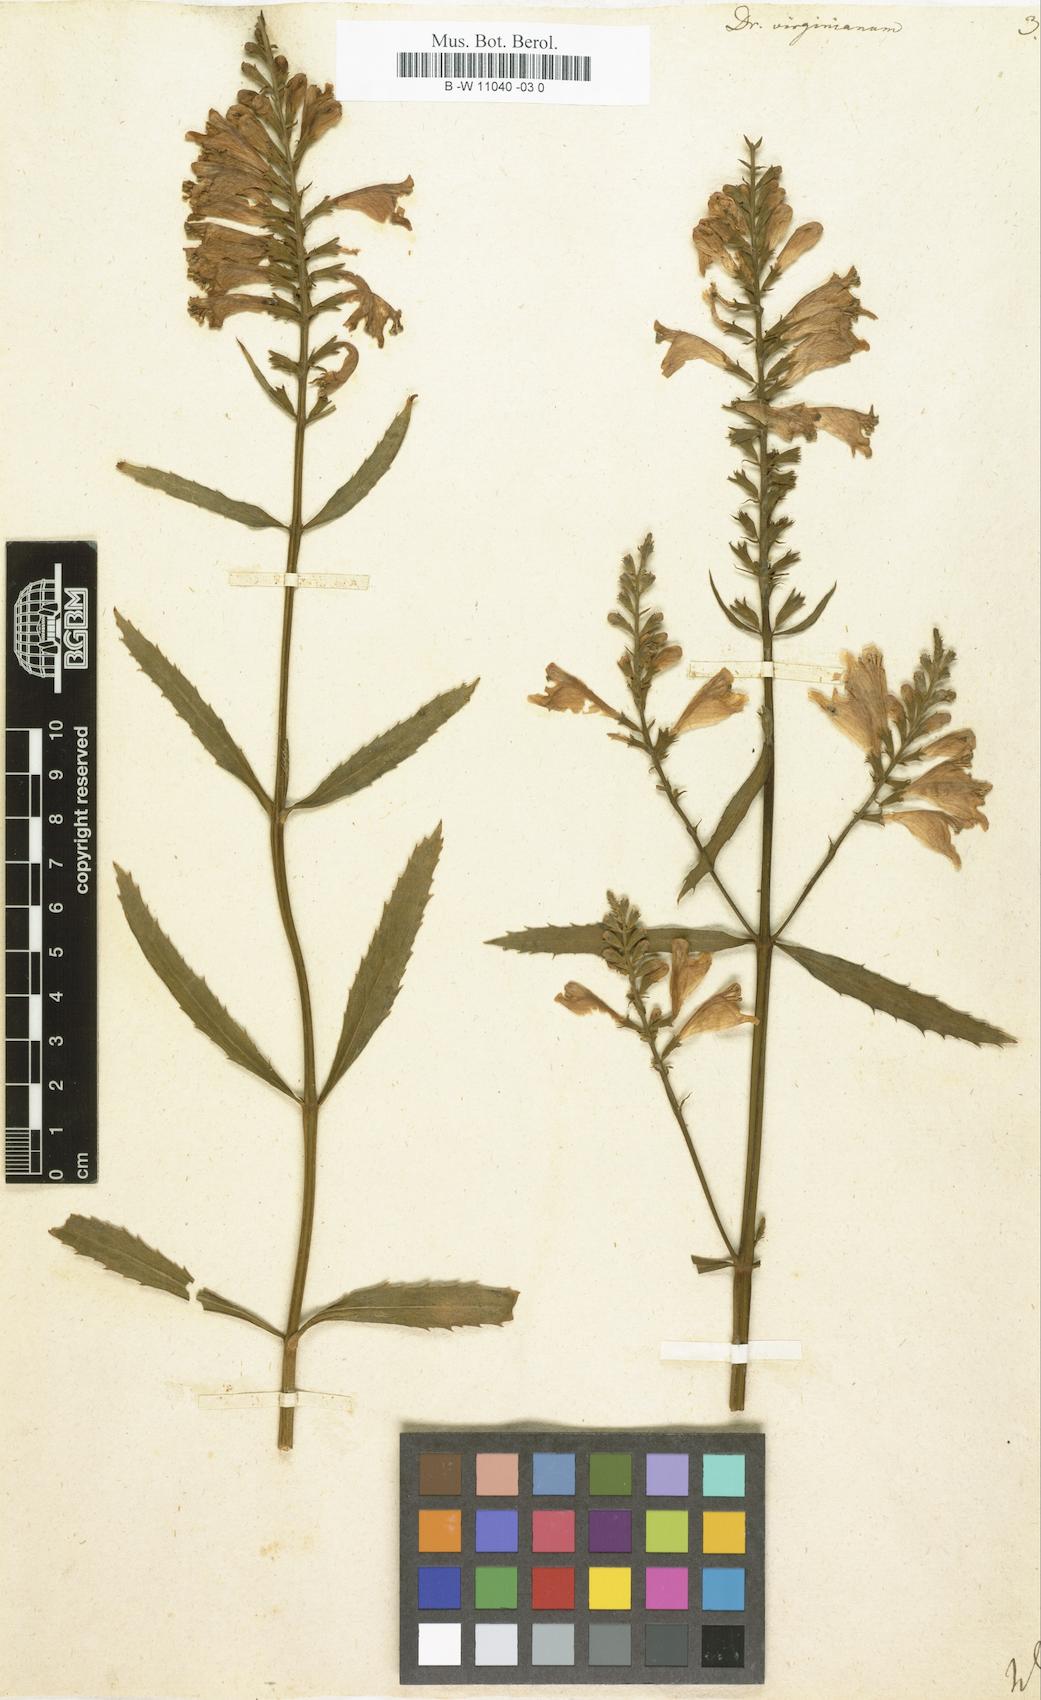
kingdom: Plantae
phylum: Tracheophyta
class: Magnoliopsida
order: Lamiales
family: Lamiaceae
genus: Physostegia
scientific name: Physostegia virginiana
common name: Obedient-plant
